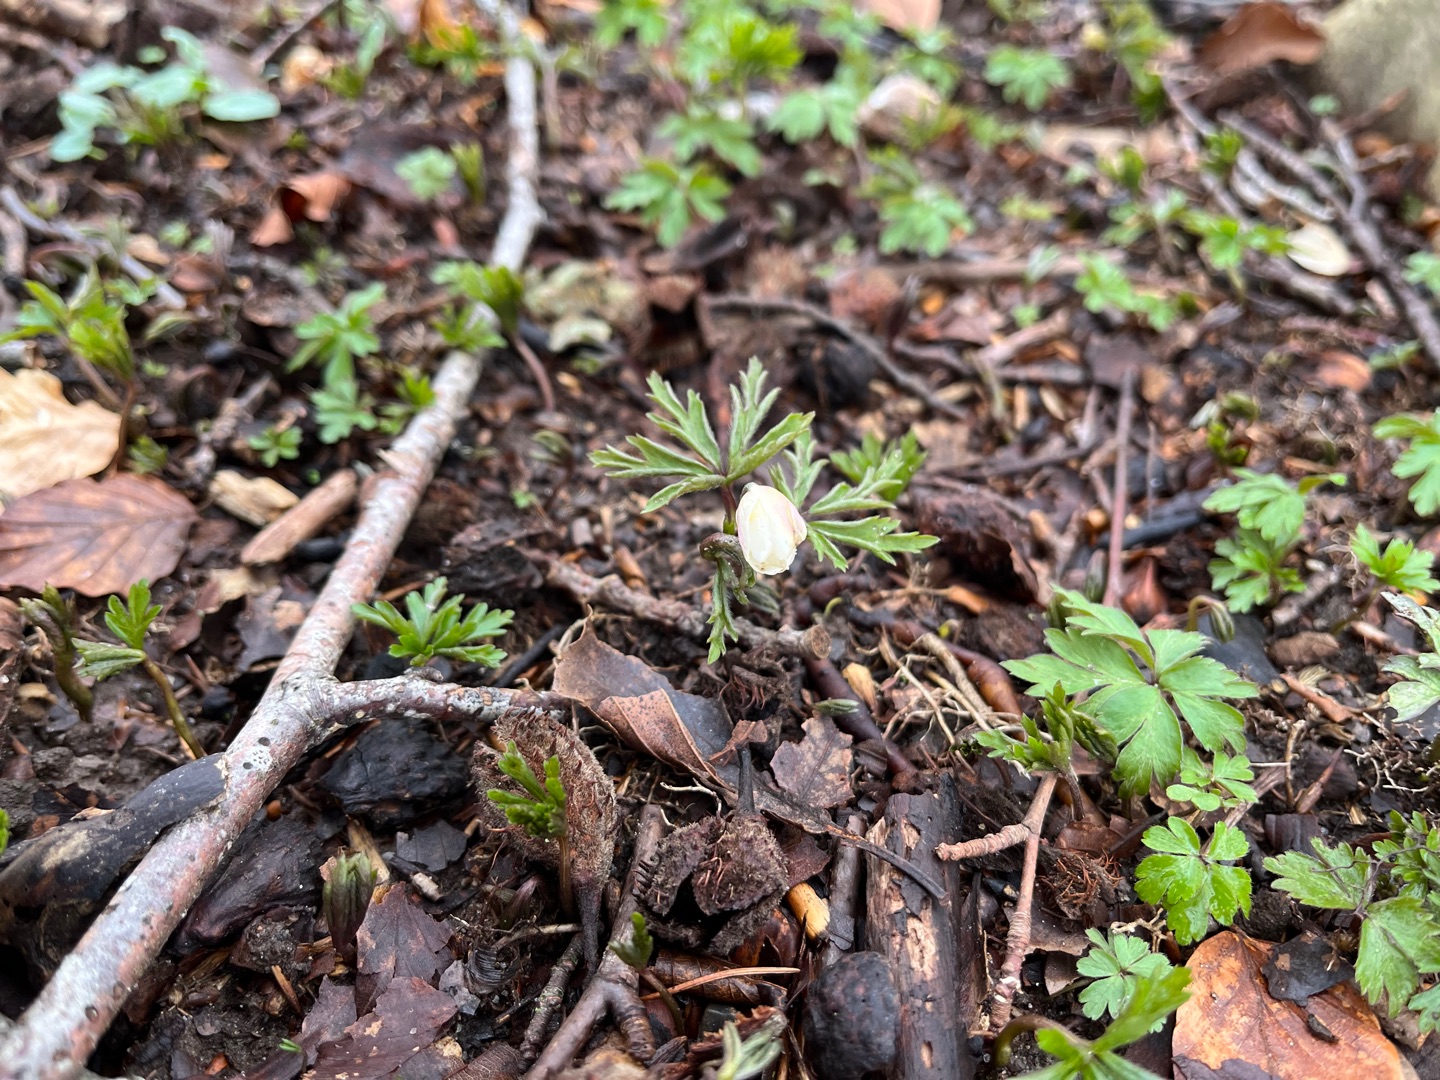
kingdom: Plantae
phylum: Tracheophyta
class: Magnoliopsida
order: Ranunculales
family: Ranunculaceae
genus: Anemone
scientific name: Anemone nemorosa
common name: Hvid anemone
